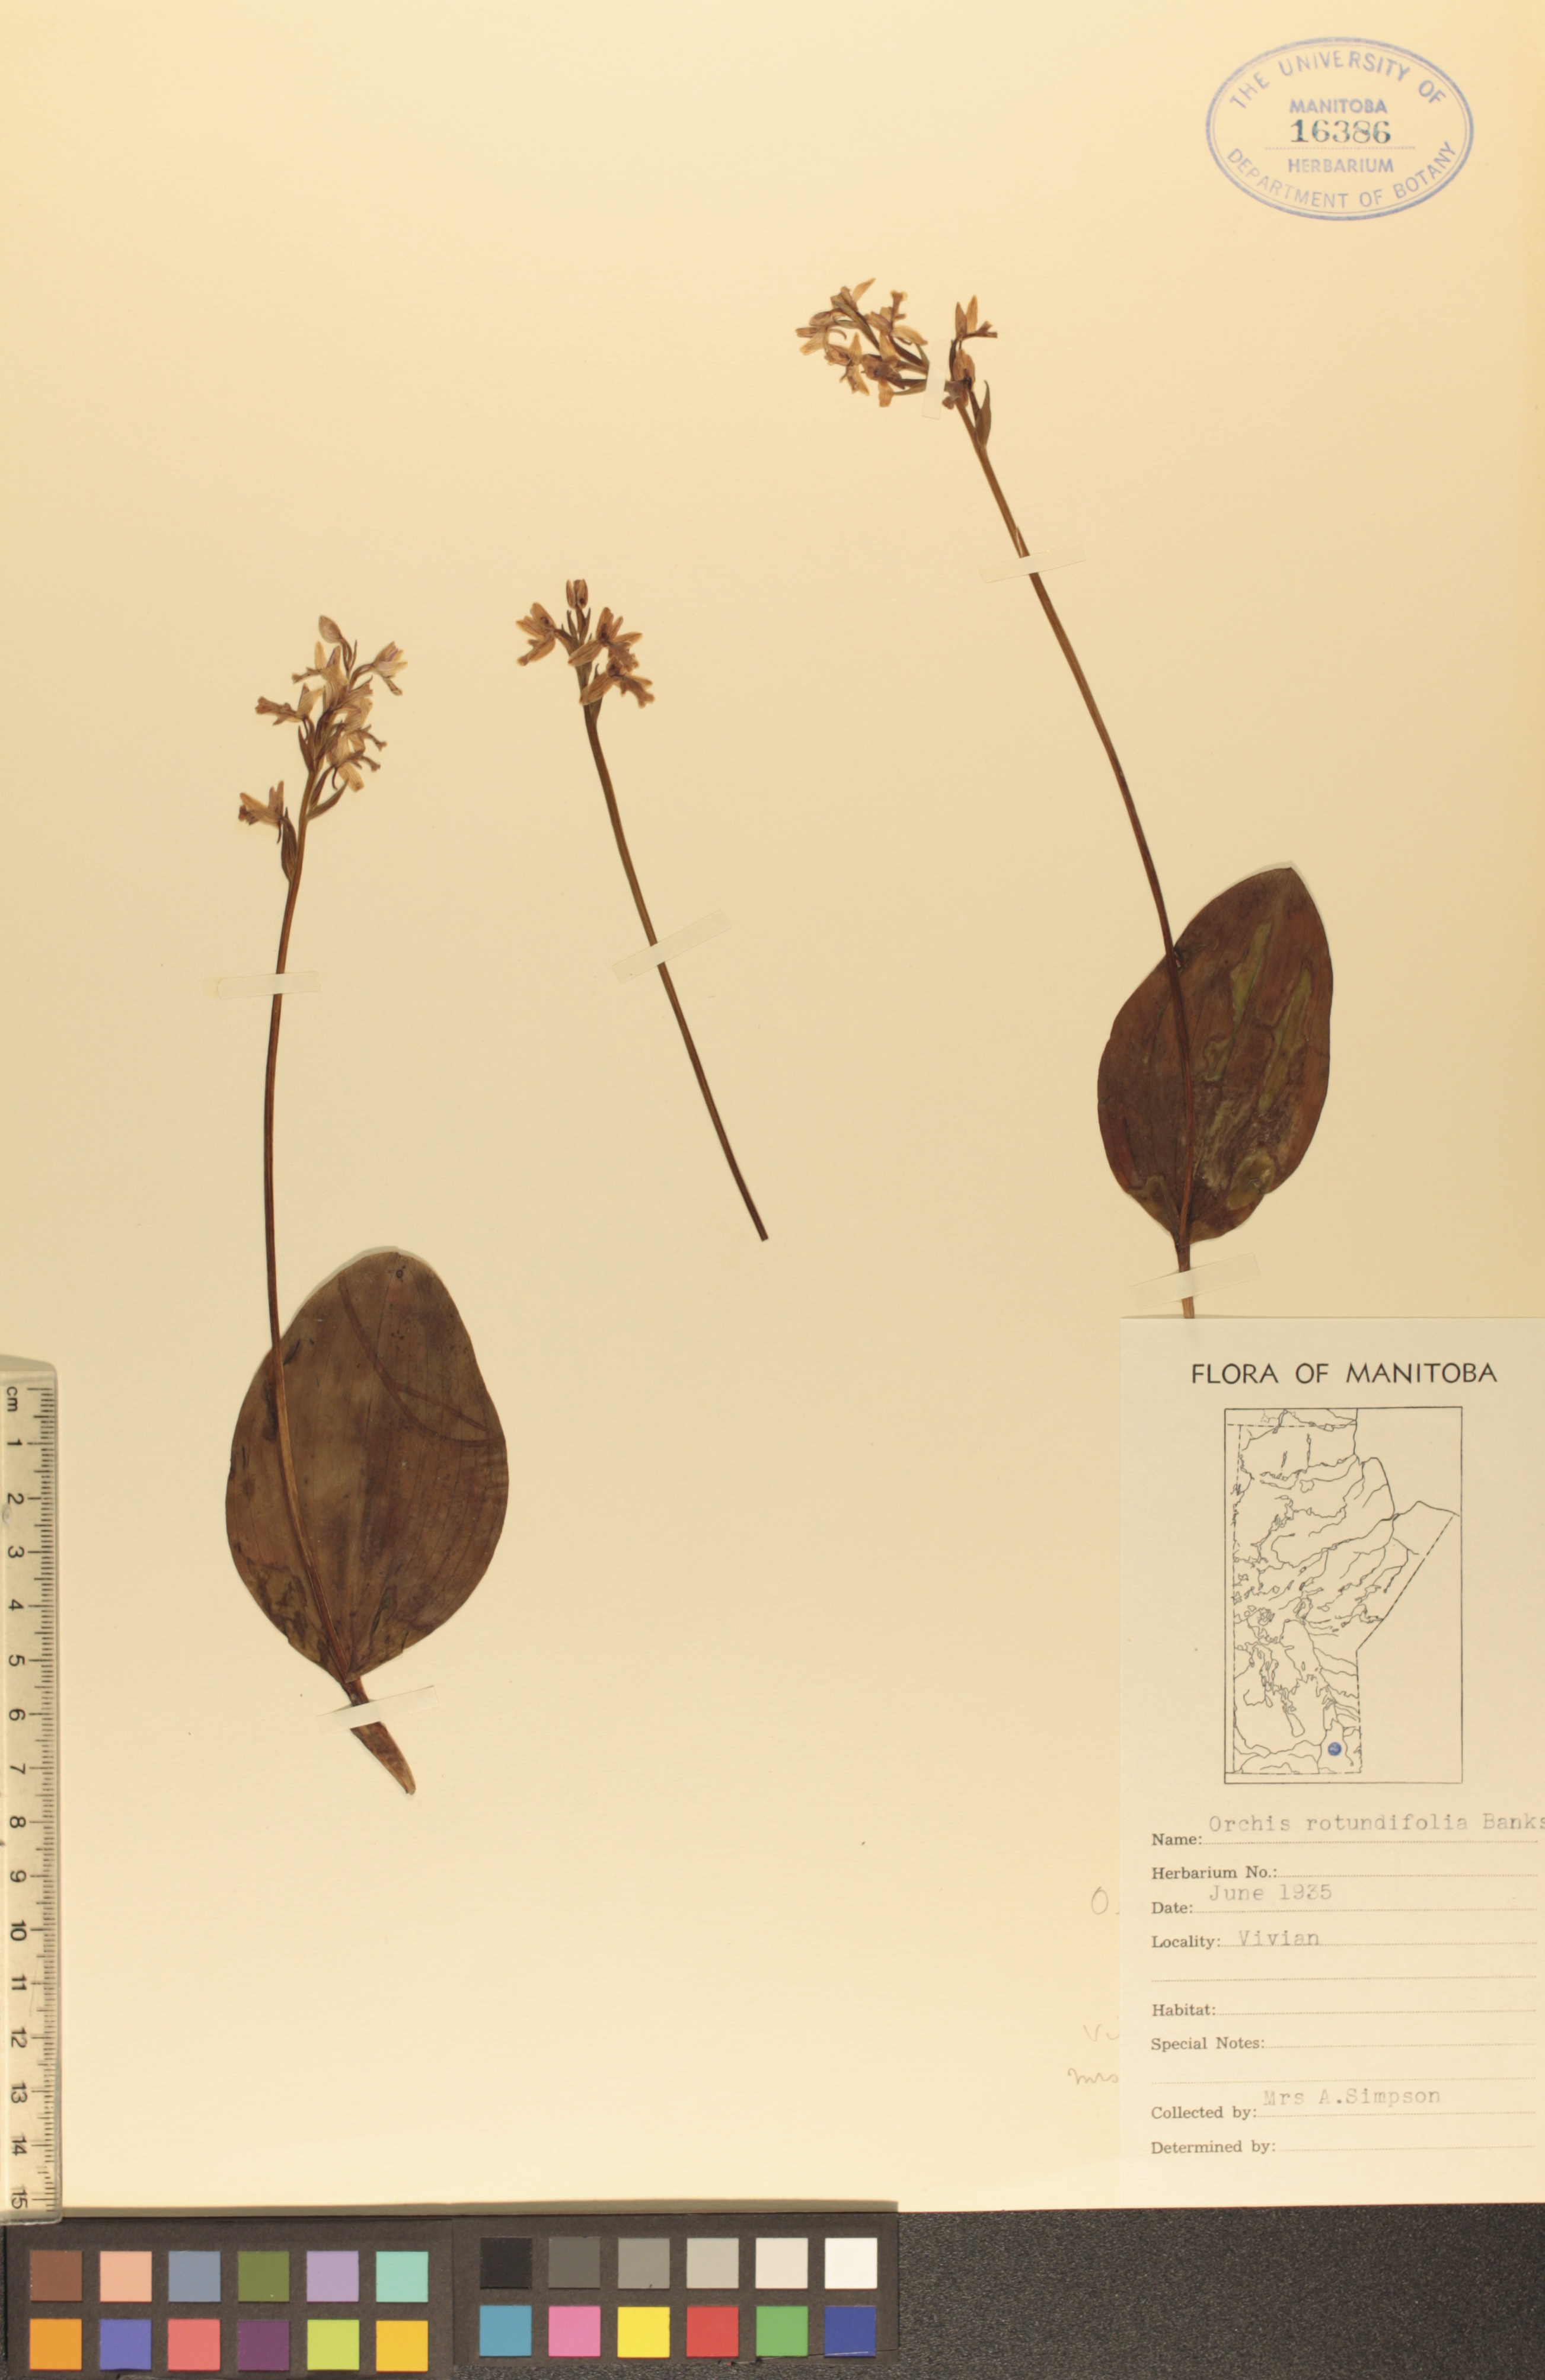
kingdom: Plantae
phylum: Tracheophyta
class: Liliopsida
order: Asparagales
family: Orchidaceae
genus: Galearis
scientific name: Galearis rotundifolia
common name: One-leaved orchis
